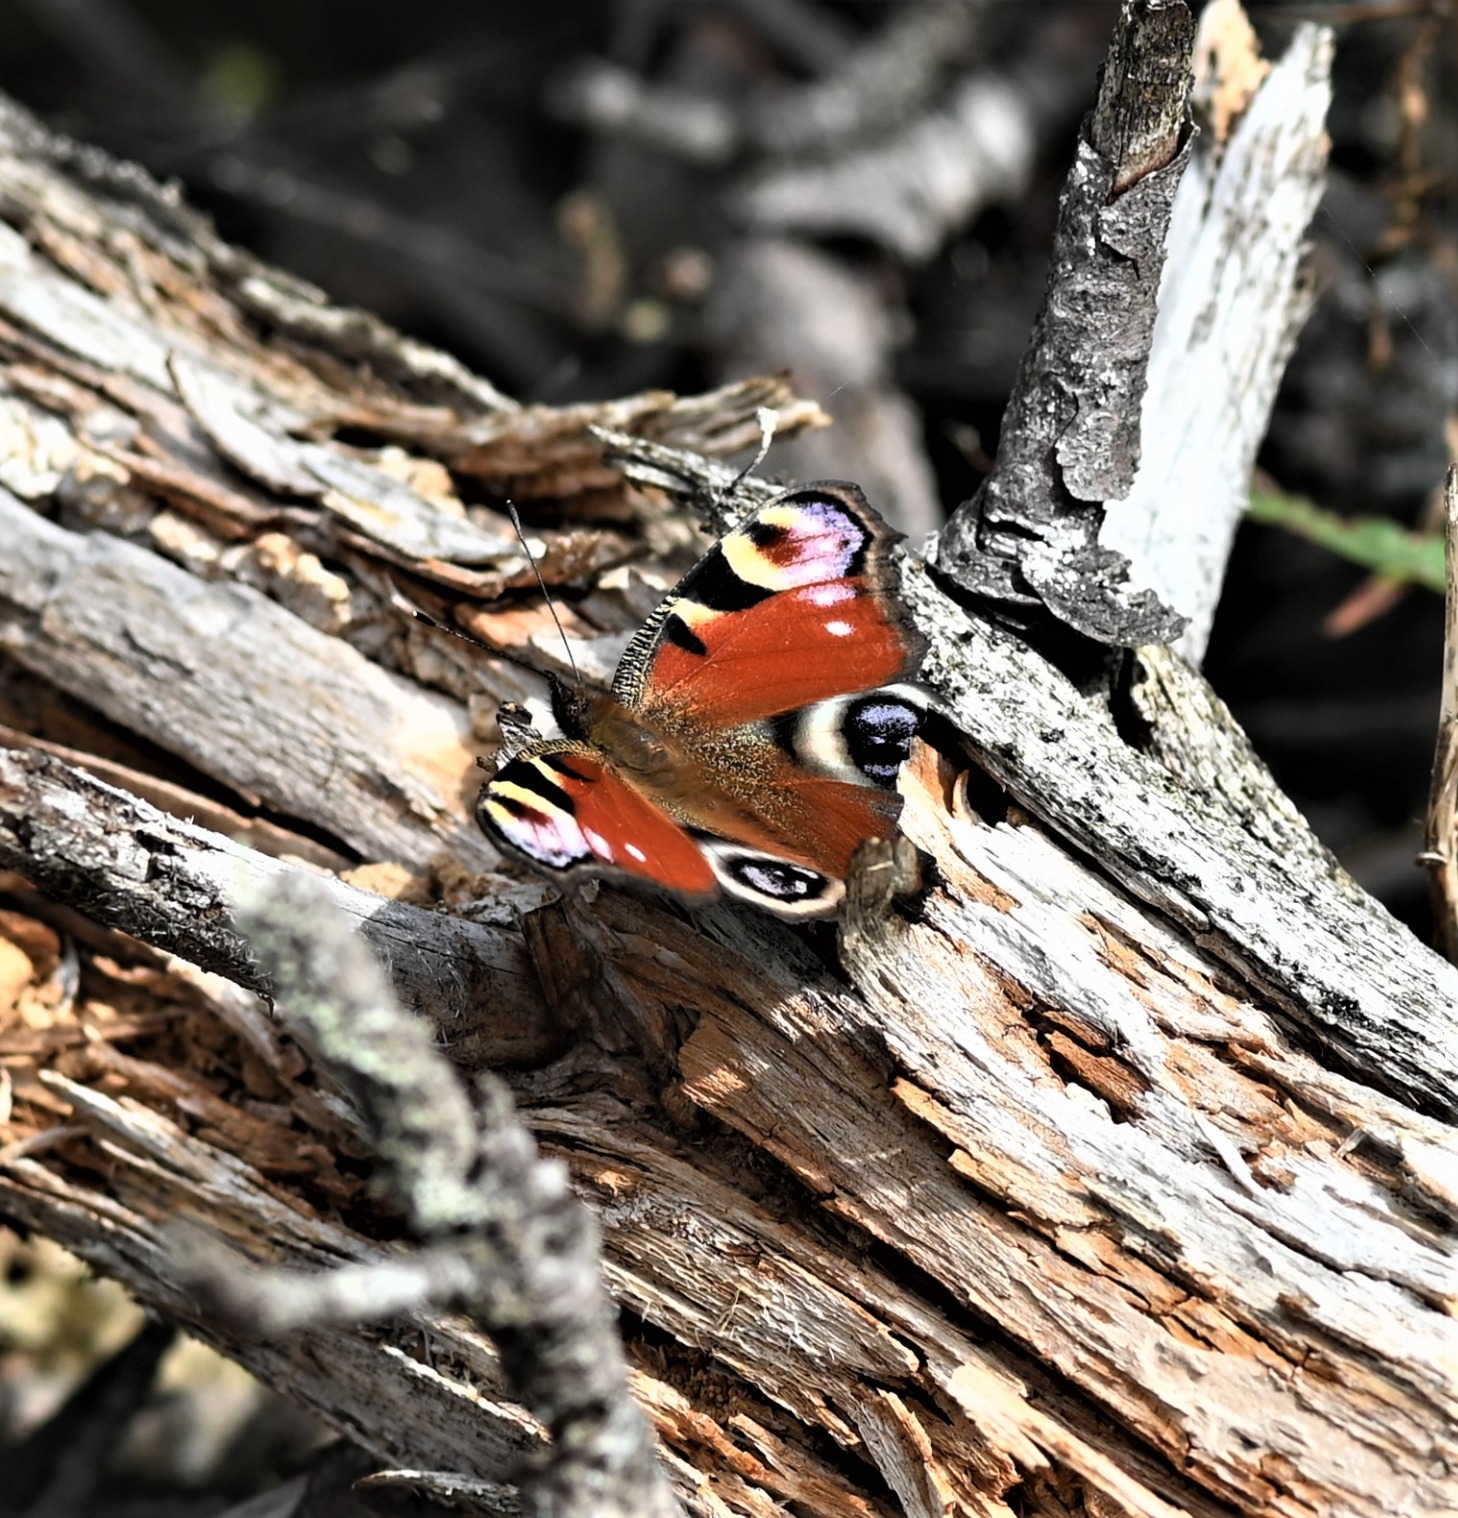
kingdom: Animalia
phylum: Arthropoda
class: Insecta
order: Lepidoptera
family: Nymphalidae
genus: Aglais
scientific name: Aglais io
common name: Dagpåfugleøje
